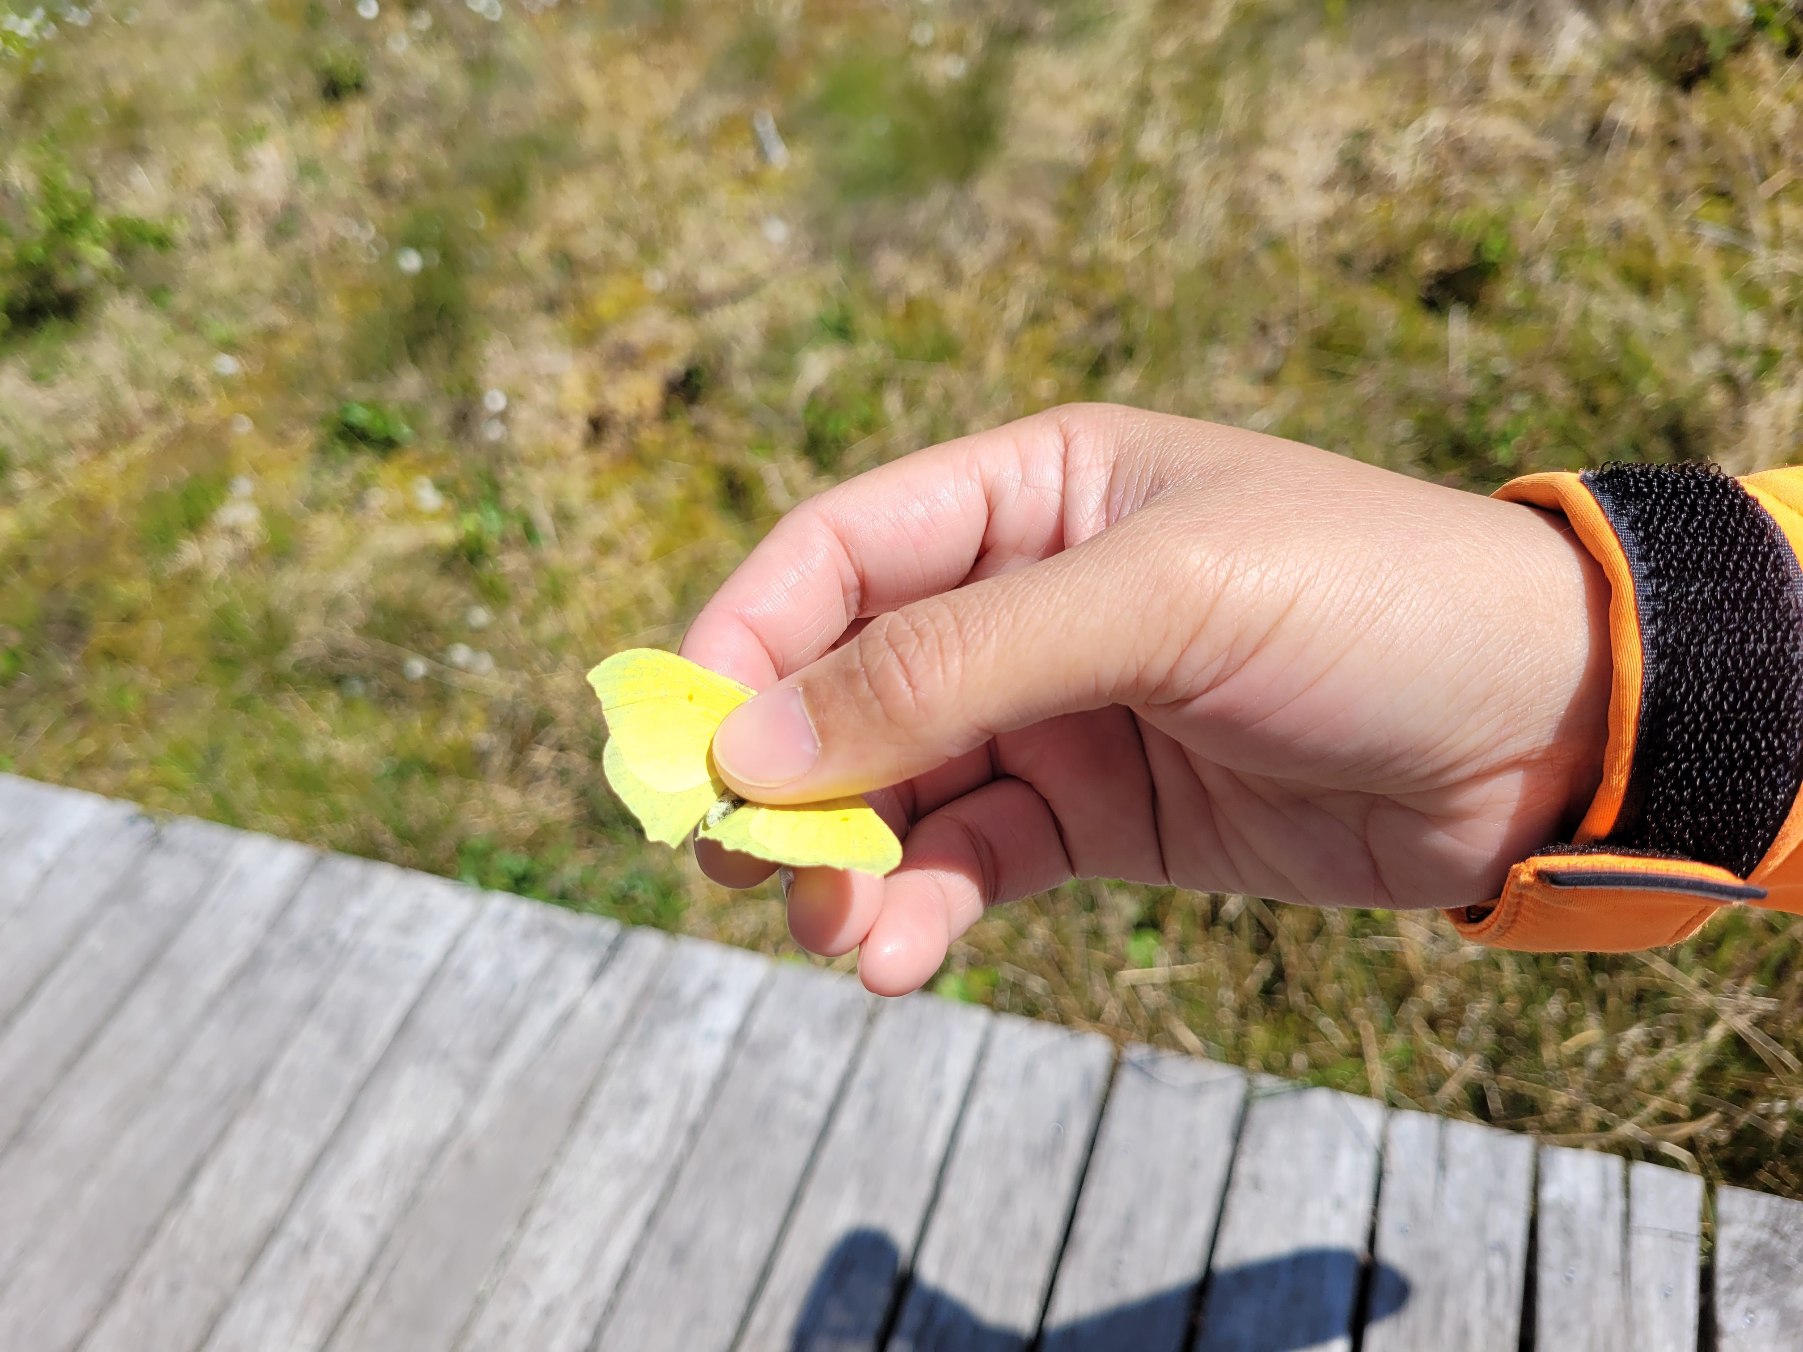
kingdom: Animalia
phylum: Arthropoda
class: Insecta
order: Lepidoptera
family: Pieridae
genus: Gonepteryx
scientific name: Gonepteryx rhamni
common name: Citronsommerfugl
